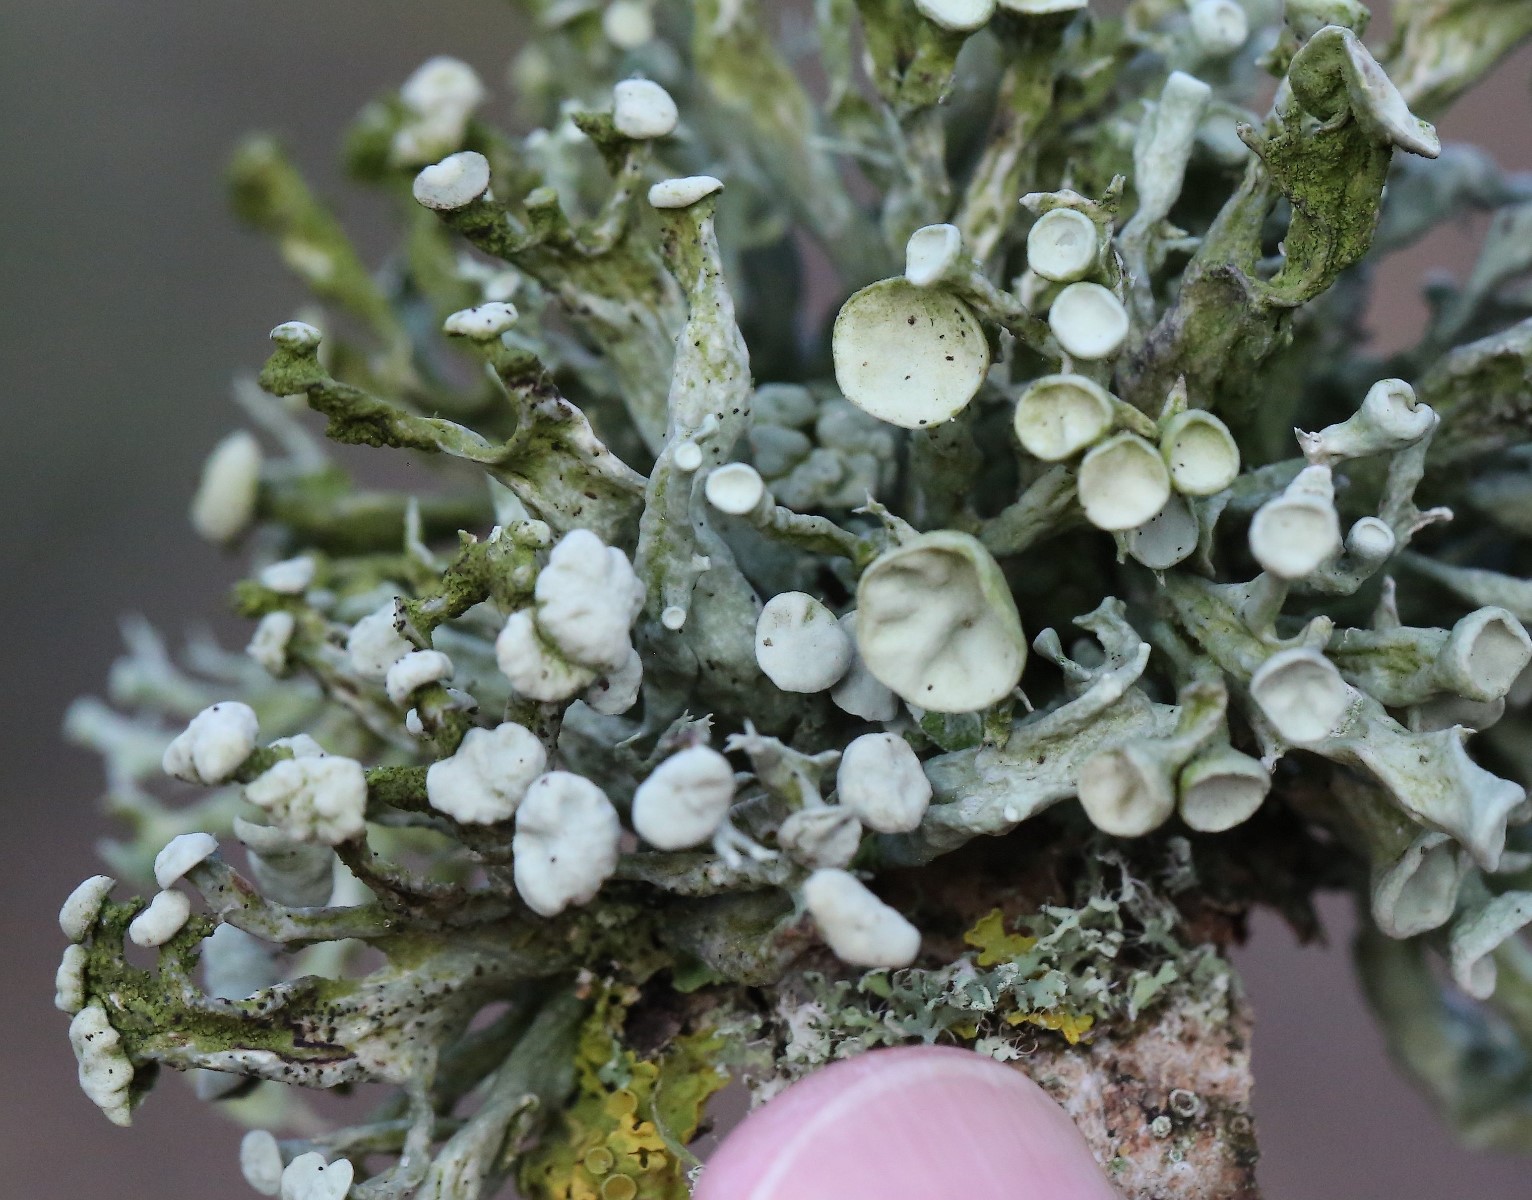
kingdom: Fungi
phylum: Ascomycota
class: Lecanoromycetes
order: Lecanorales
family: Ramalinaceae
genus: Ramalina
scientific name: Ramalina fastigiata
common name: tue-grenlav
